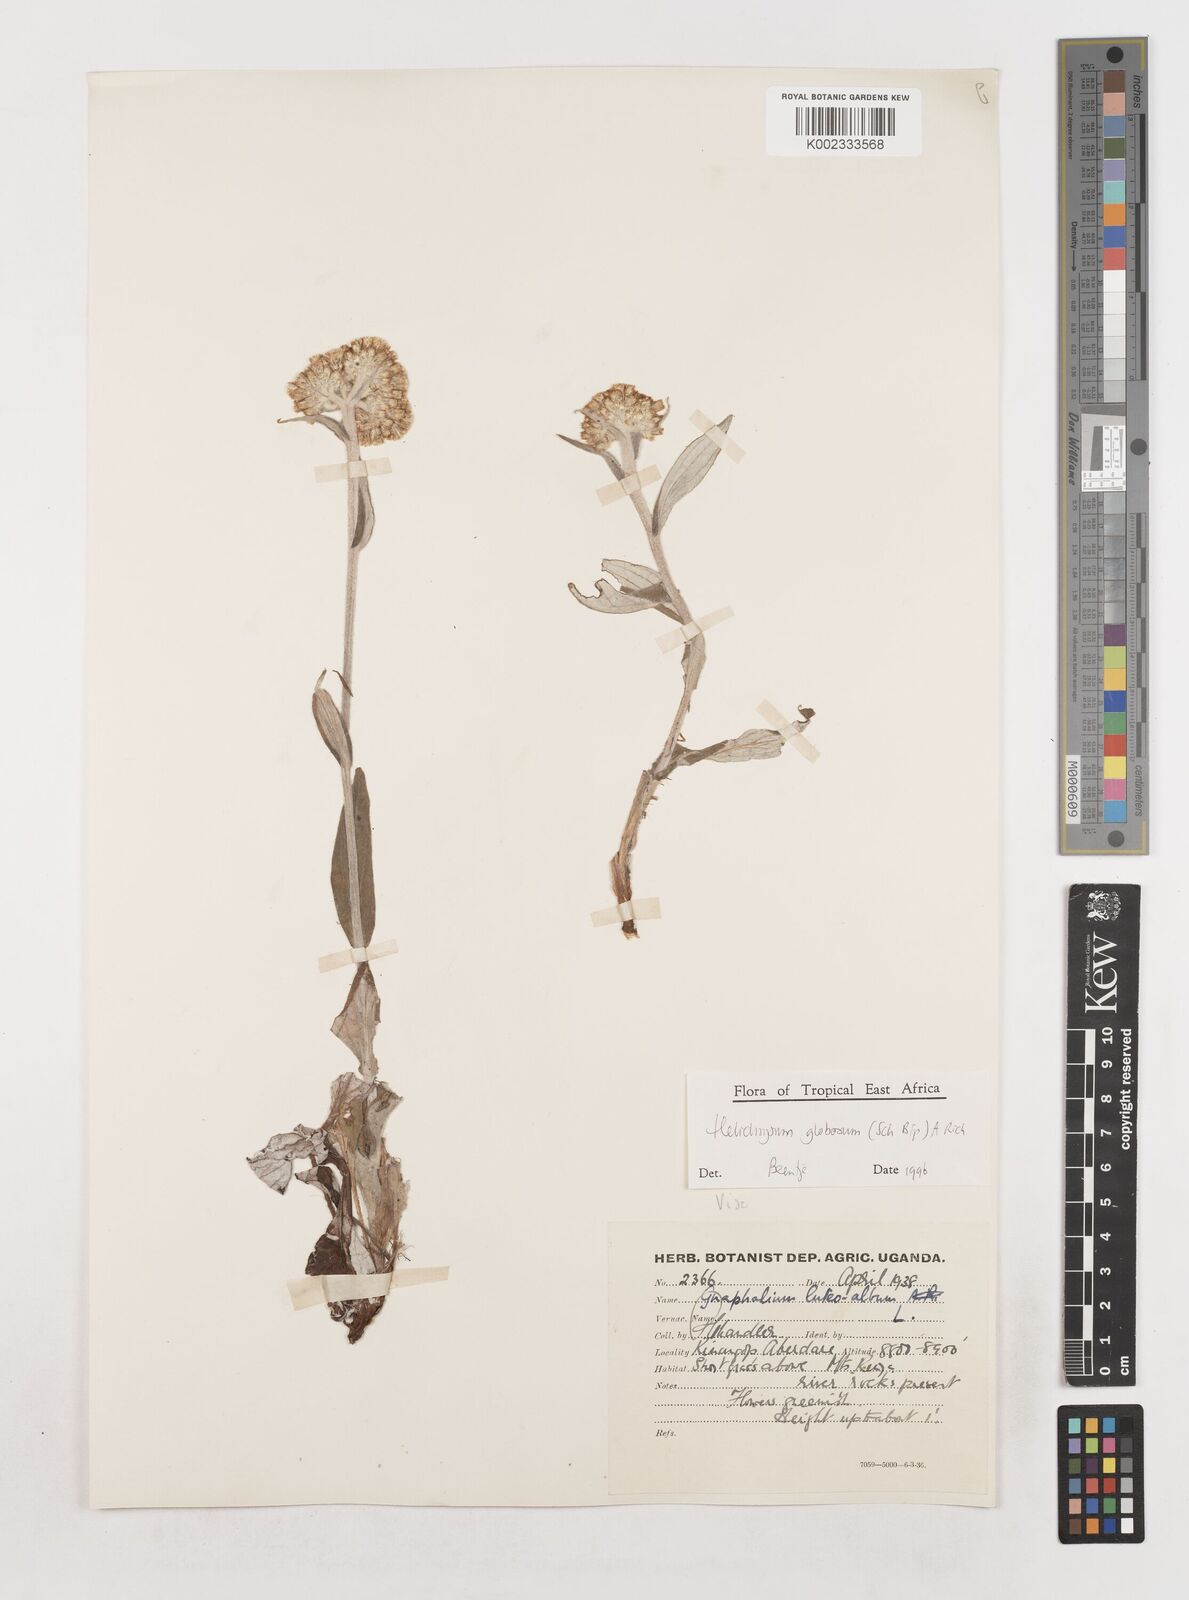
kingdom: Plantae
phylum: Tracheophyta
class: Magnoliopsida
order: Asterales
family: Asteraceae
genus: Helichrysum
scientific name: Helichrysum globosum
